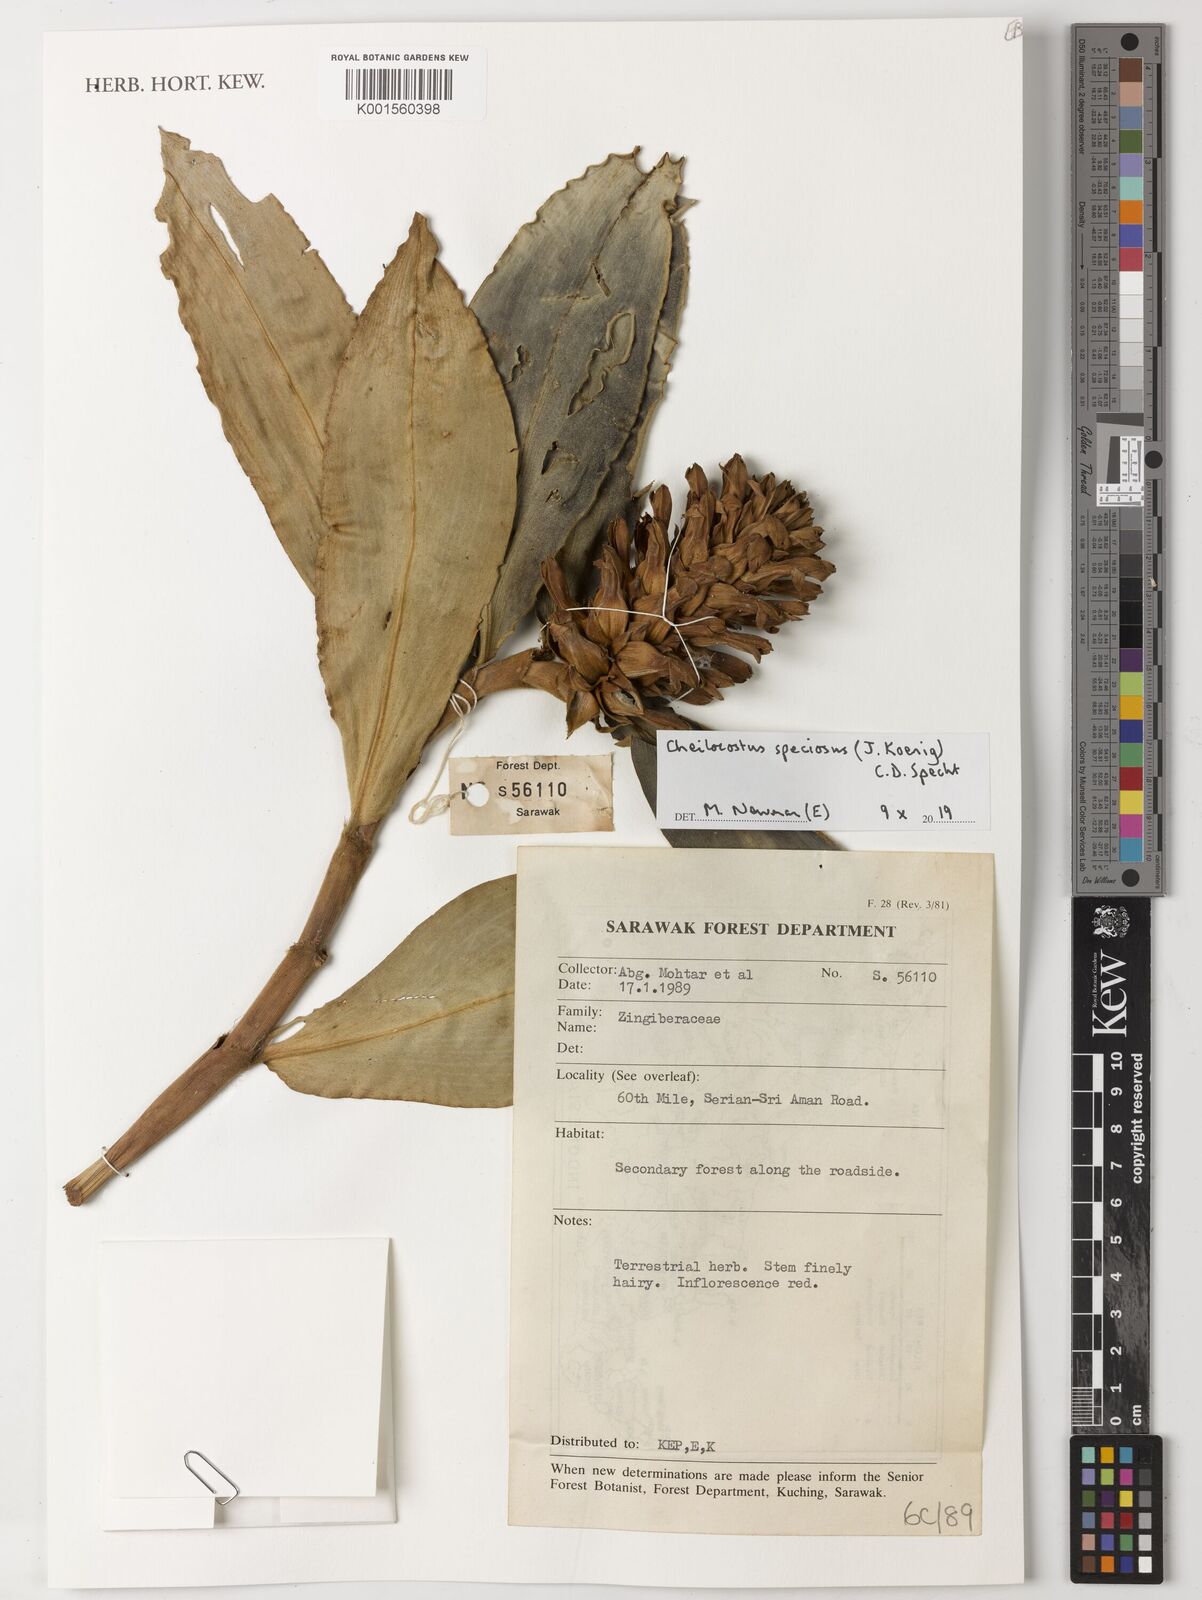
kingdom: Plantae
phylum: Tracheophyta
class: Liliopsida
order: Zingiberales
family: Costaceae
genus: Hellenia
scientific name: Hellenia speciosa
